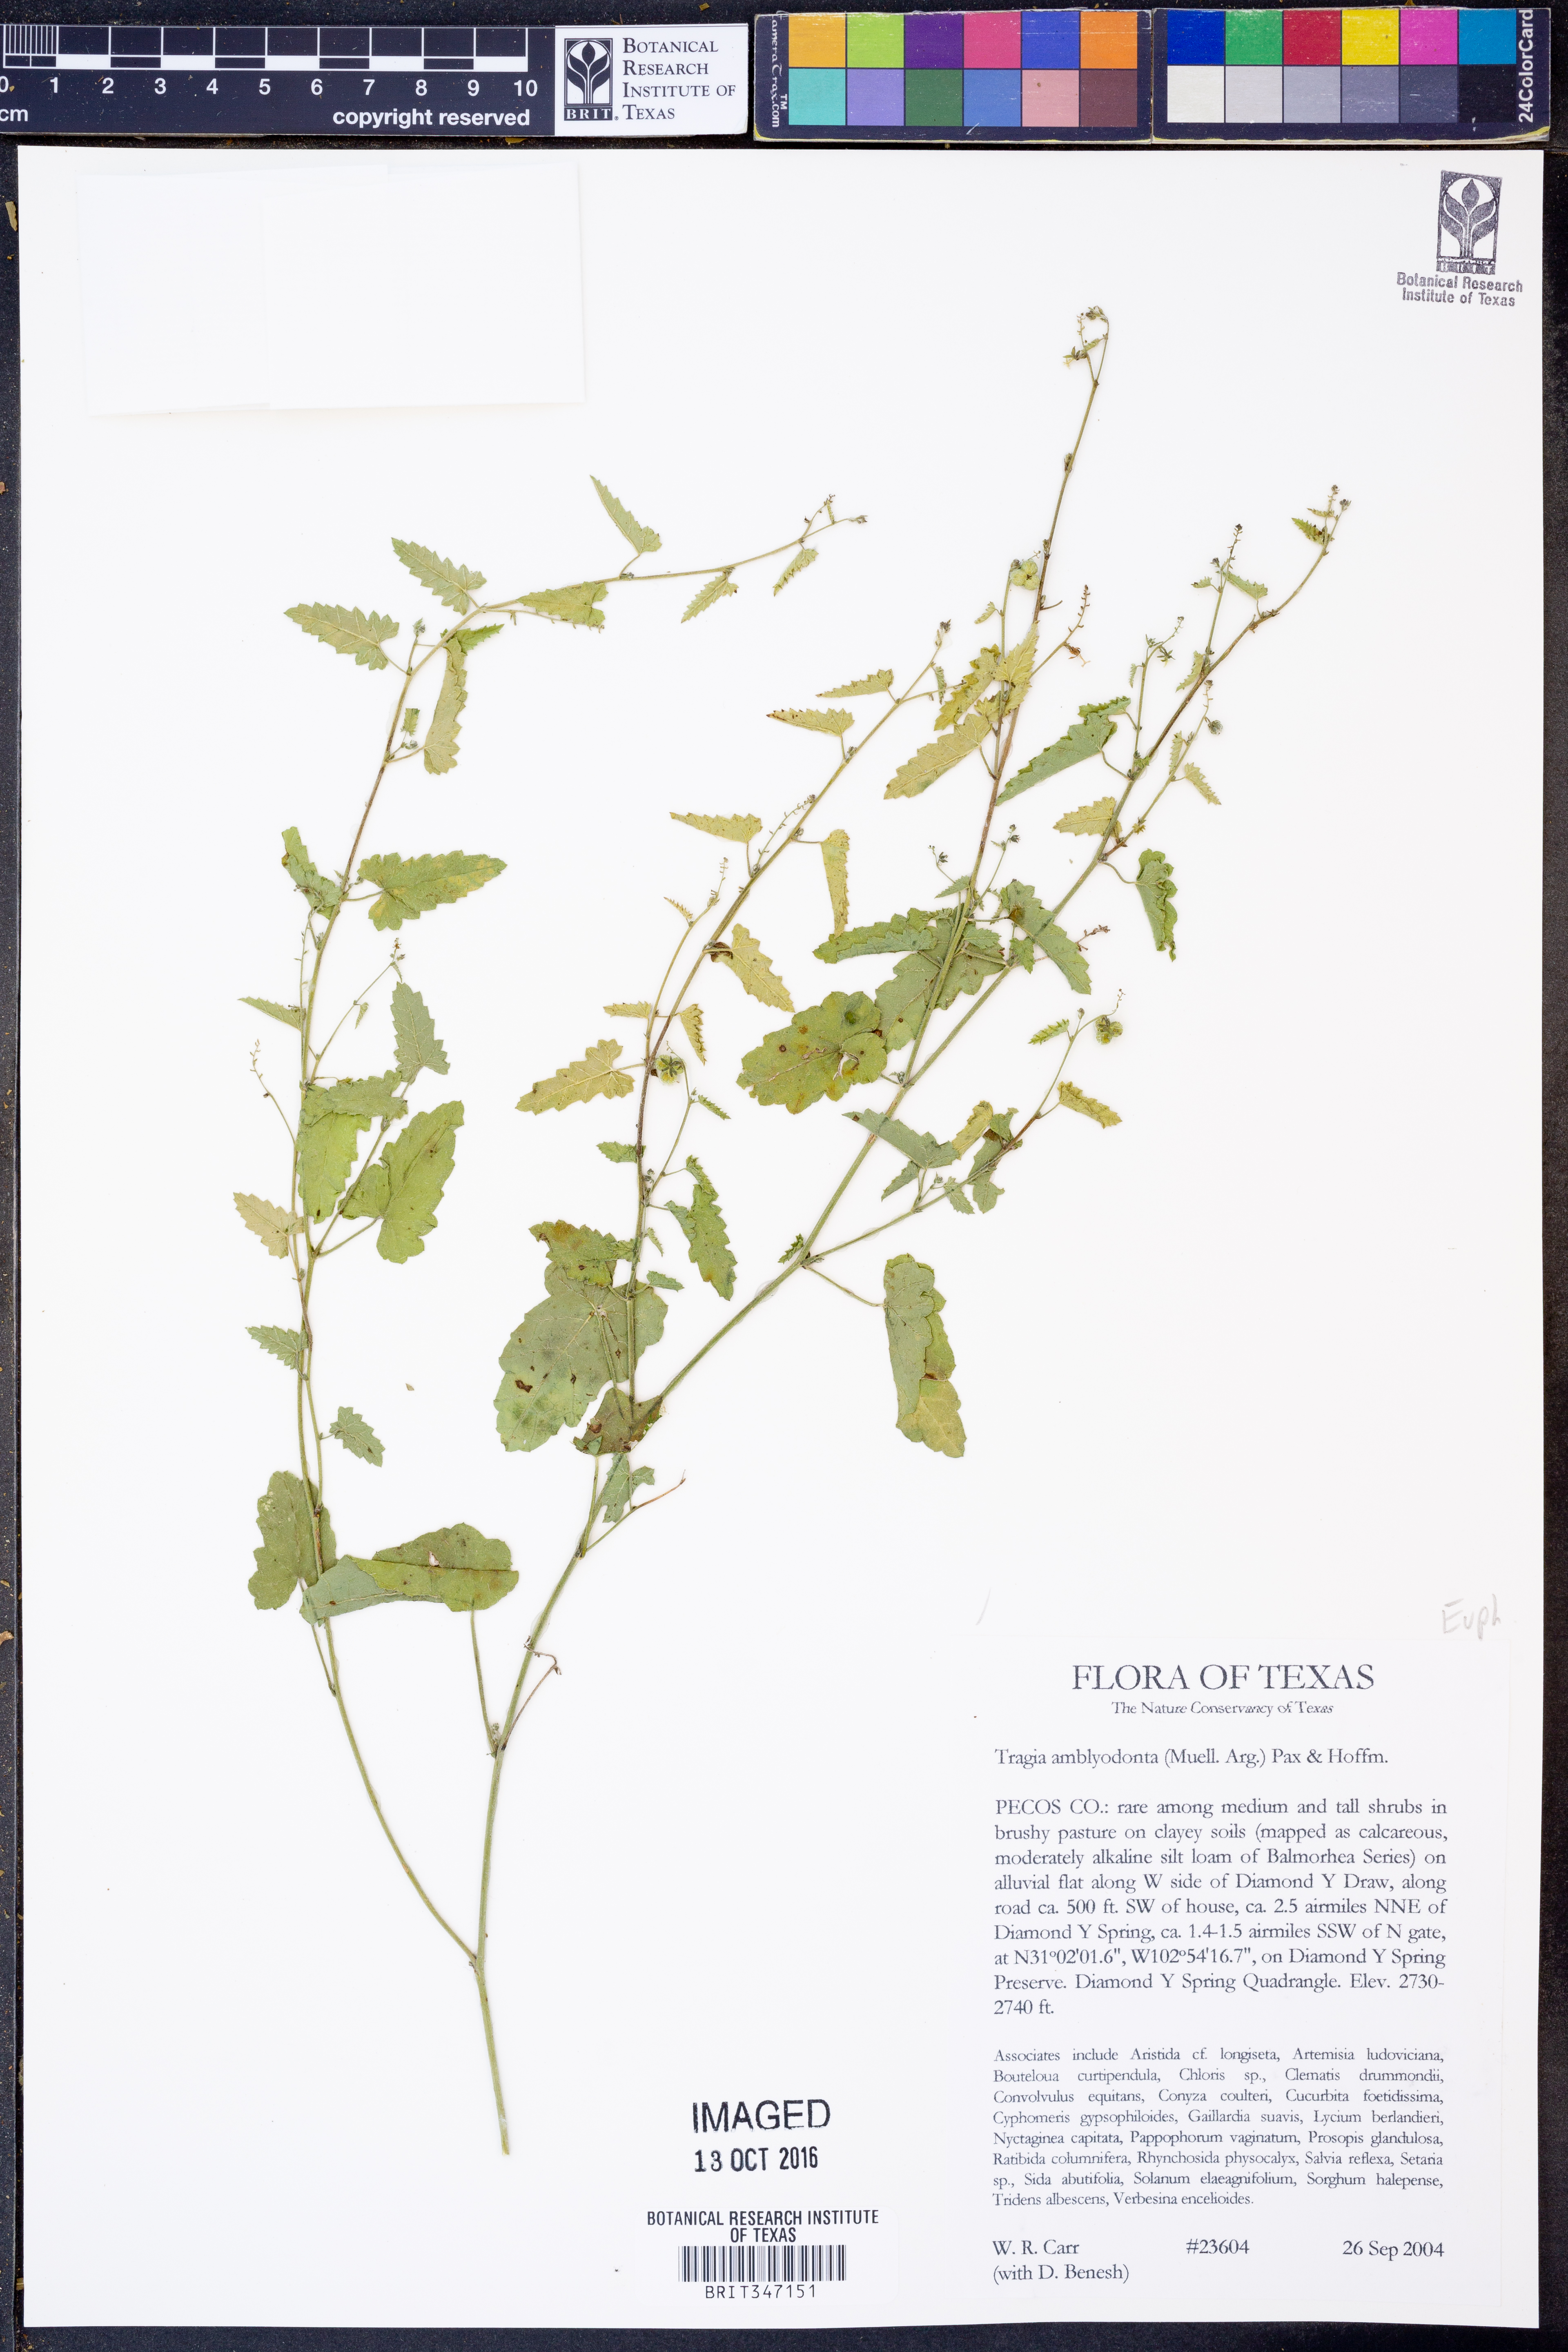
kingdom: Plantae
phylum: Tracheophyta
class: Magnoliopsida
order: Malpighiales
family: Euphorbiaceae
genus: Tragia
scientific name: Tragia amblyodonta
